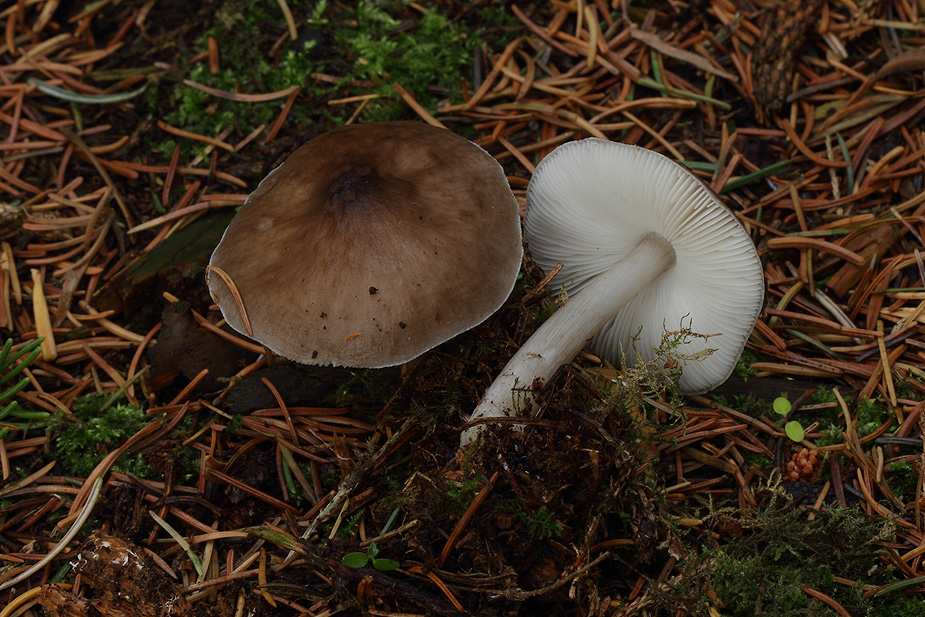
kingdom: Fungi
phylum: Basidiomycota
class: Agaricomycetes
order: Agaricales
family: Pluteaceae
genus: Pluteus
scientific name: Pluteus pouzarianus
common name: plantage-skærmhat
